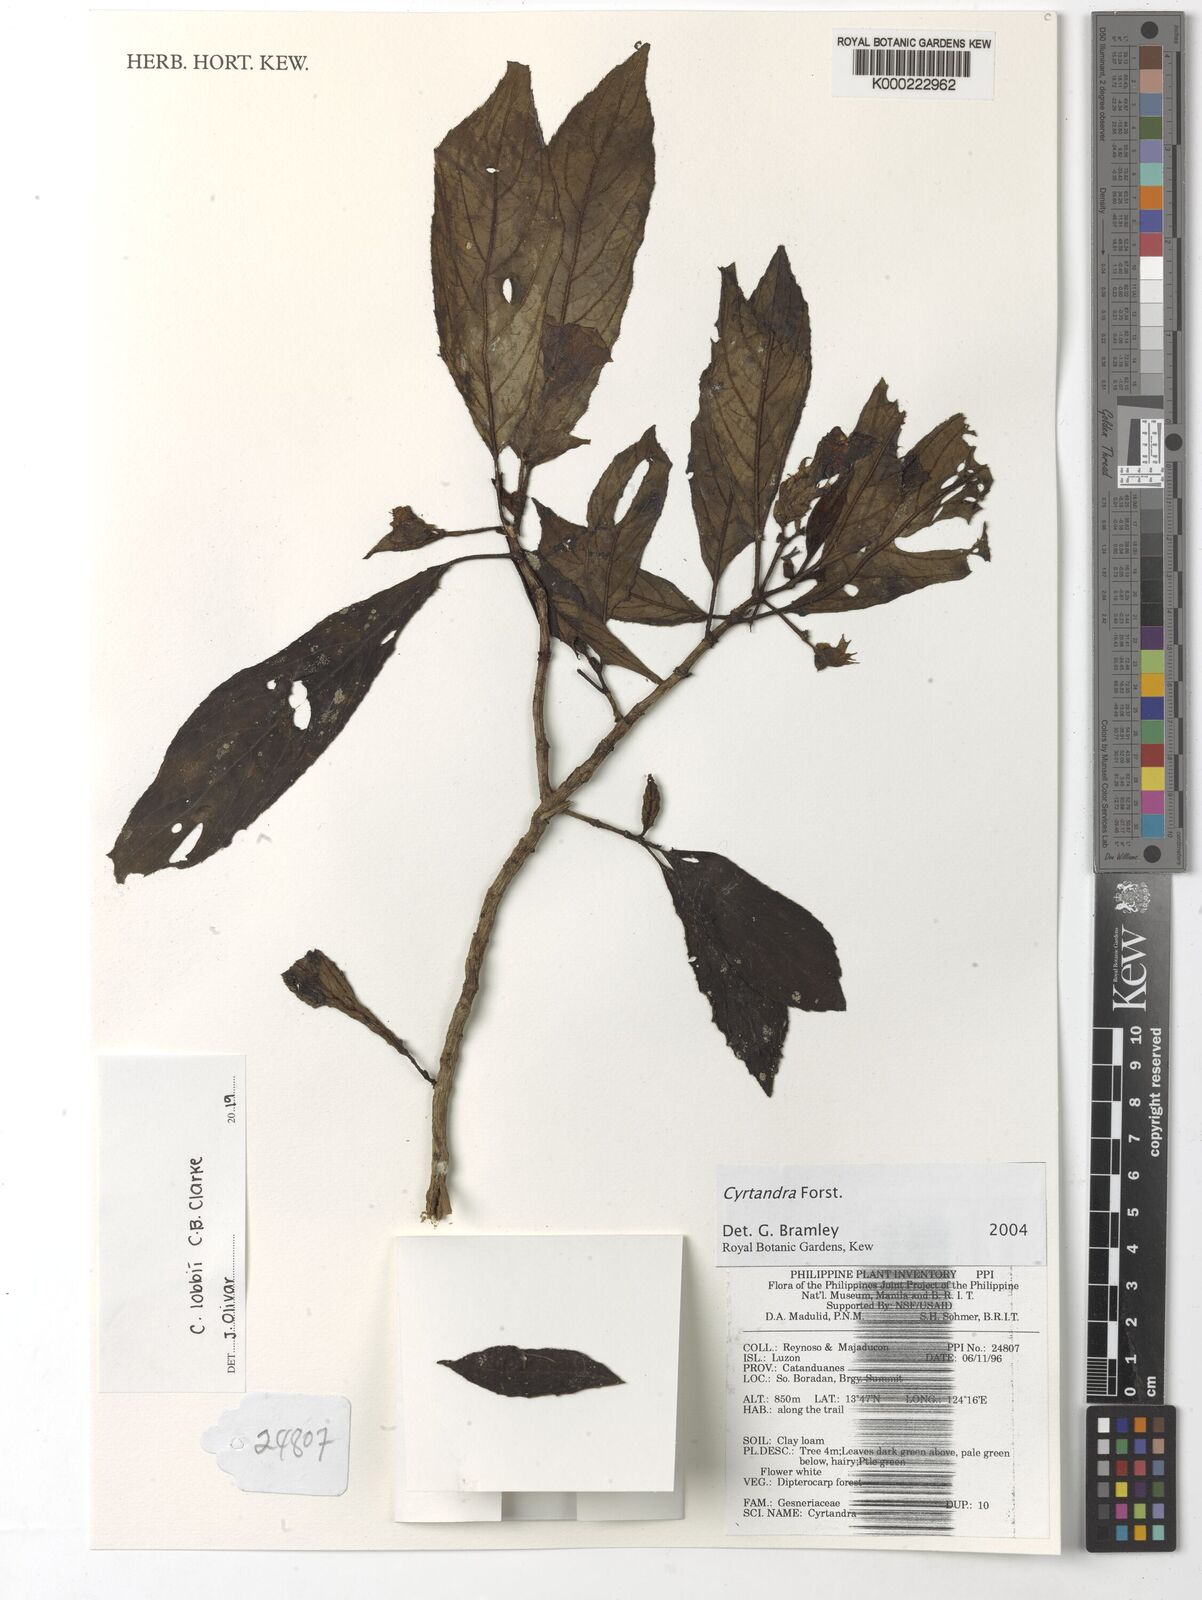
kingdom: Plantae
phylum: Tracheophyta
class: Magnoliopsida
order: Lamiales
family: Gesneriaceae
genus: Cyrtandra
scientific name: Cyrtandra
